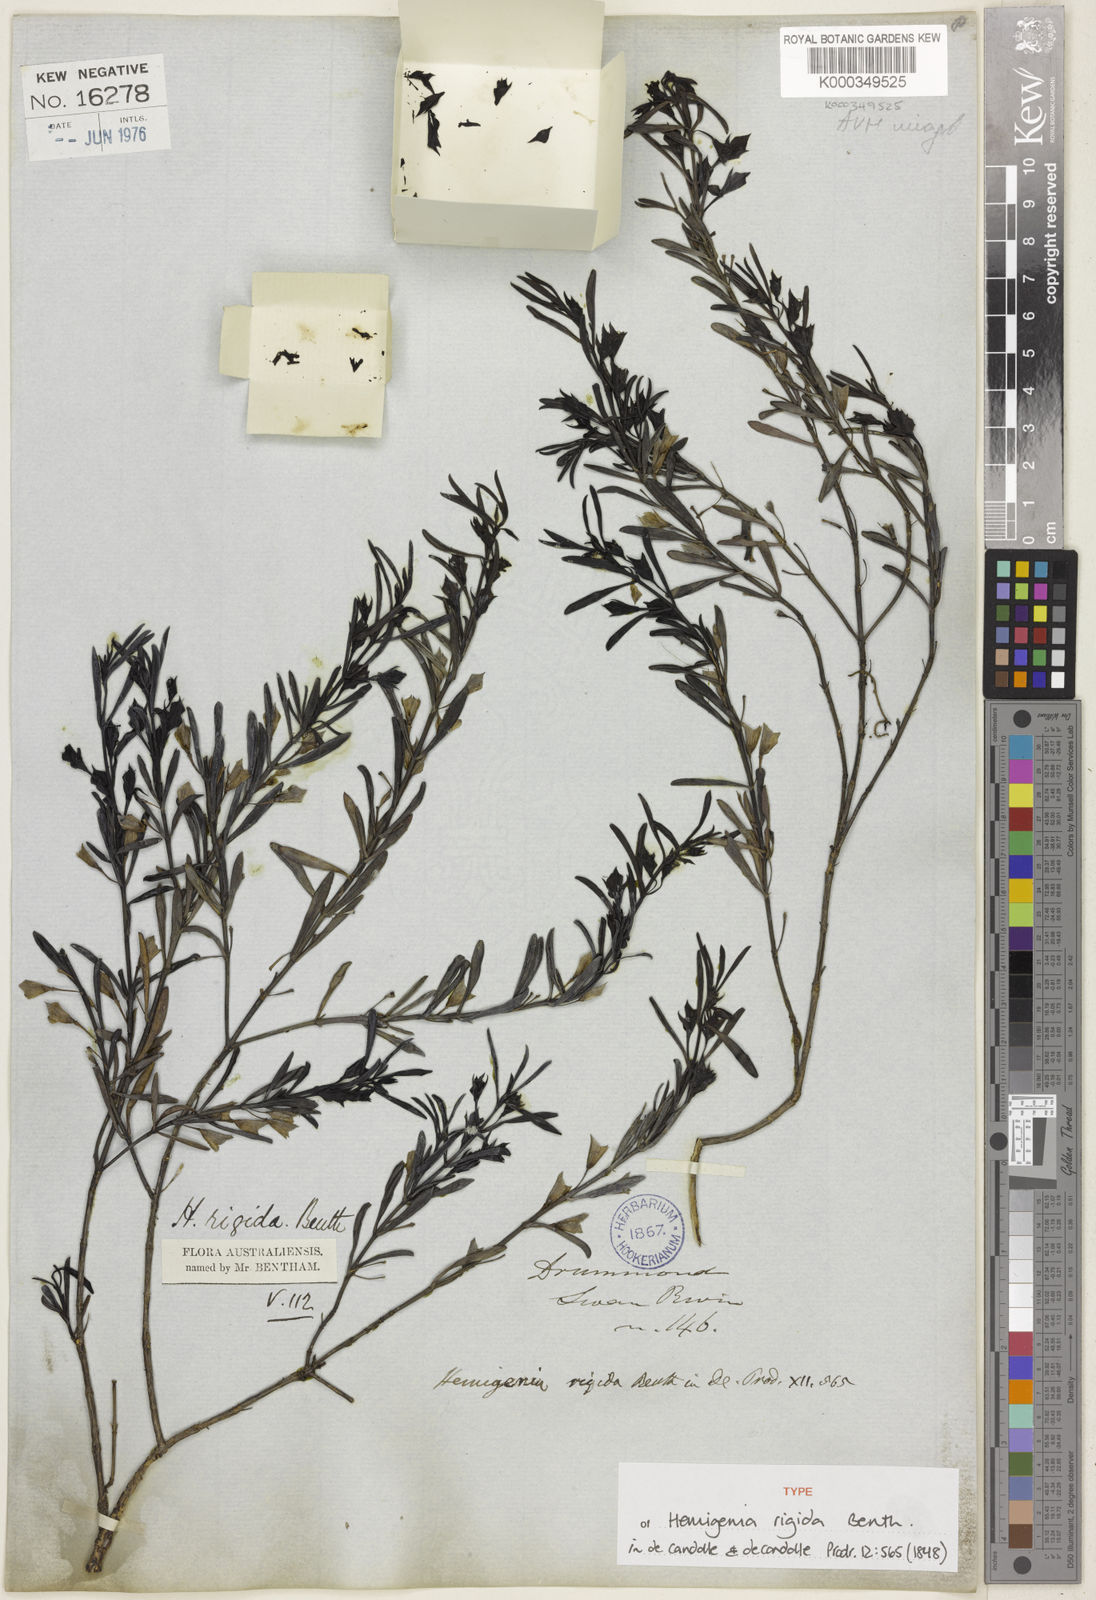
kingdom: Plantae
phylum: Tracheophyta
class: Magnoliopsida
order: Lamiales
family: Lamiaceae
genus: Hemigenia
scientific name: Hemigenia rigida
